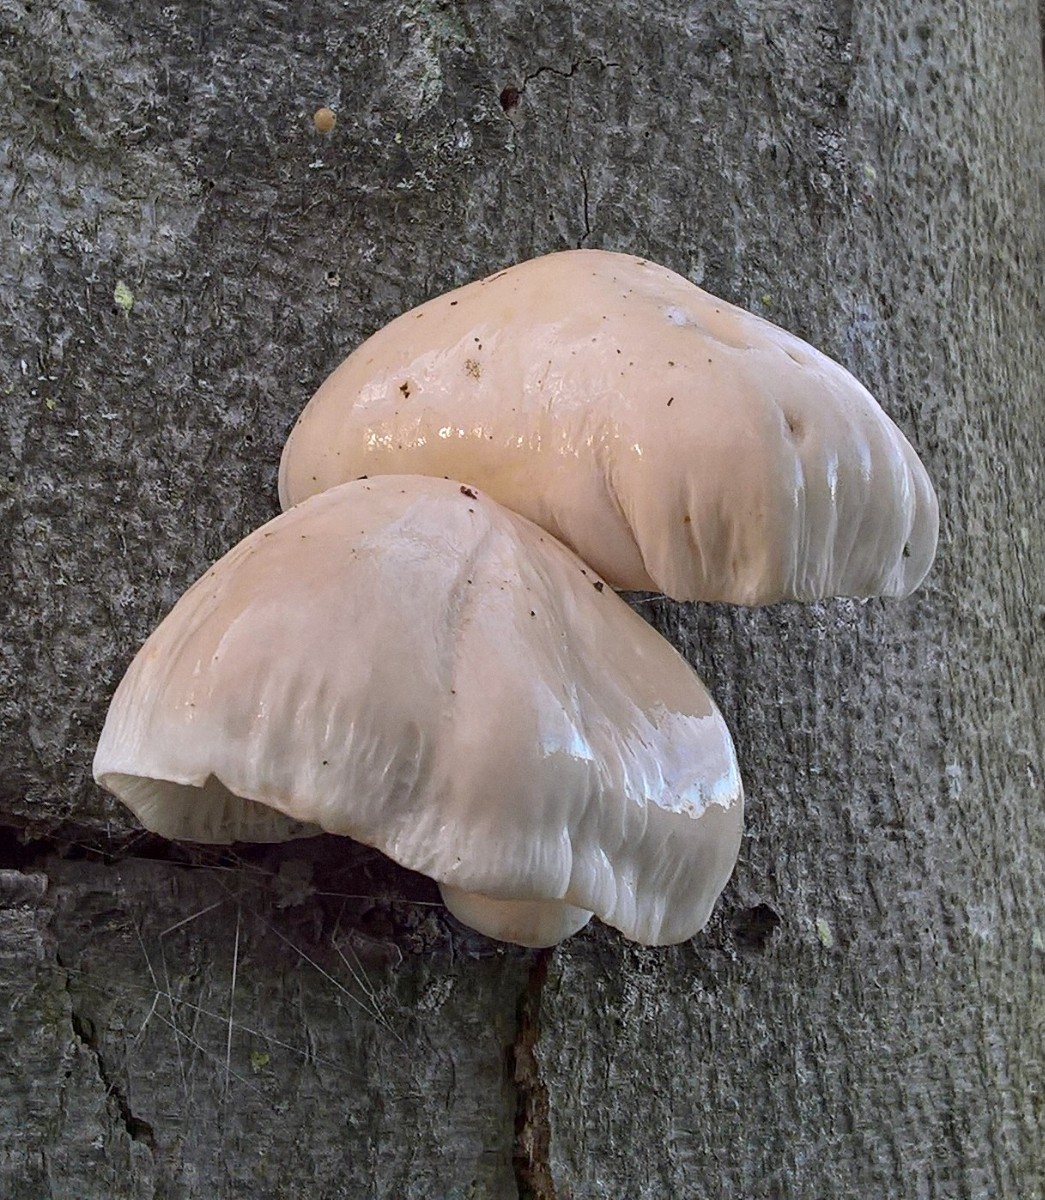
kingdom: Fungi
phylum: Basidiomycota
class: Agaricomycetes
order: Agaricales
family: Physalacriaceae
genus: Mucidula
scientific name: Mucidula mucida
